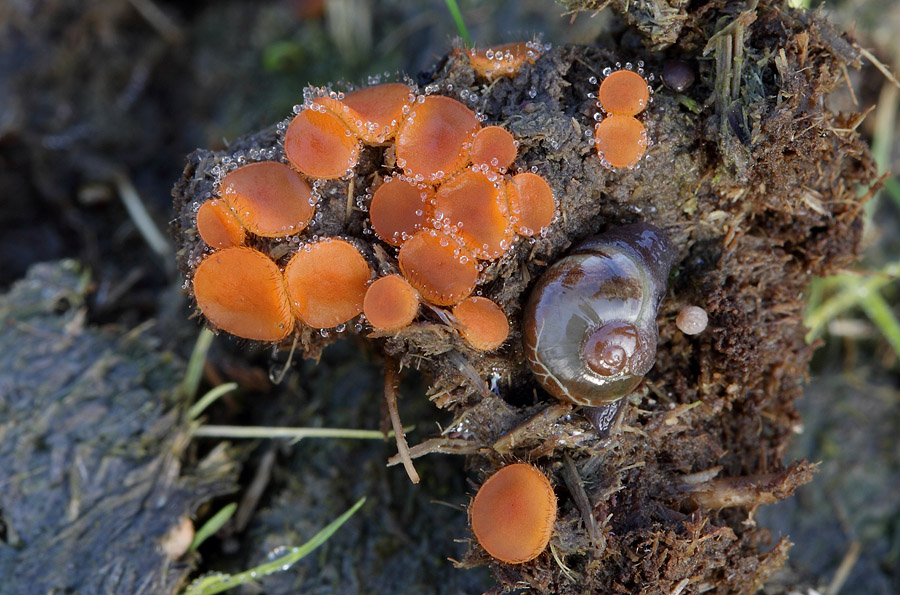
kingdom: Fungi
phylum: Ascomycota
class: Pezizomycetes
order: Pezizales
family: Pyronemataceae
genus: Cheilymenia
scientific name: Cheilymenia stercorea
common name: gødnings-hårbæger
